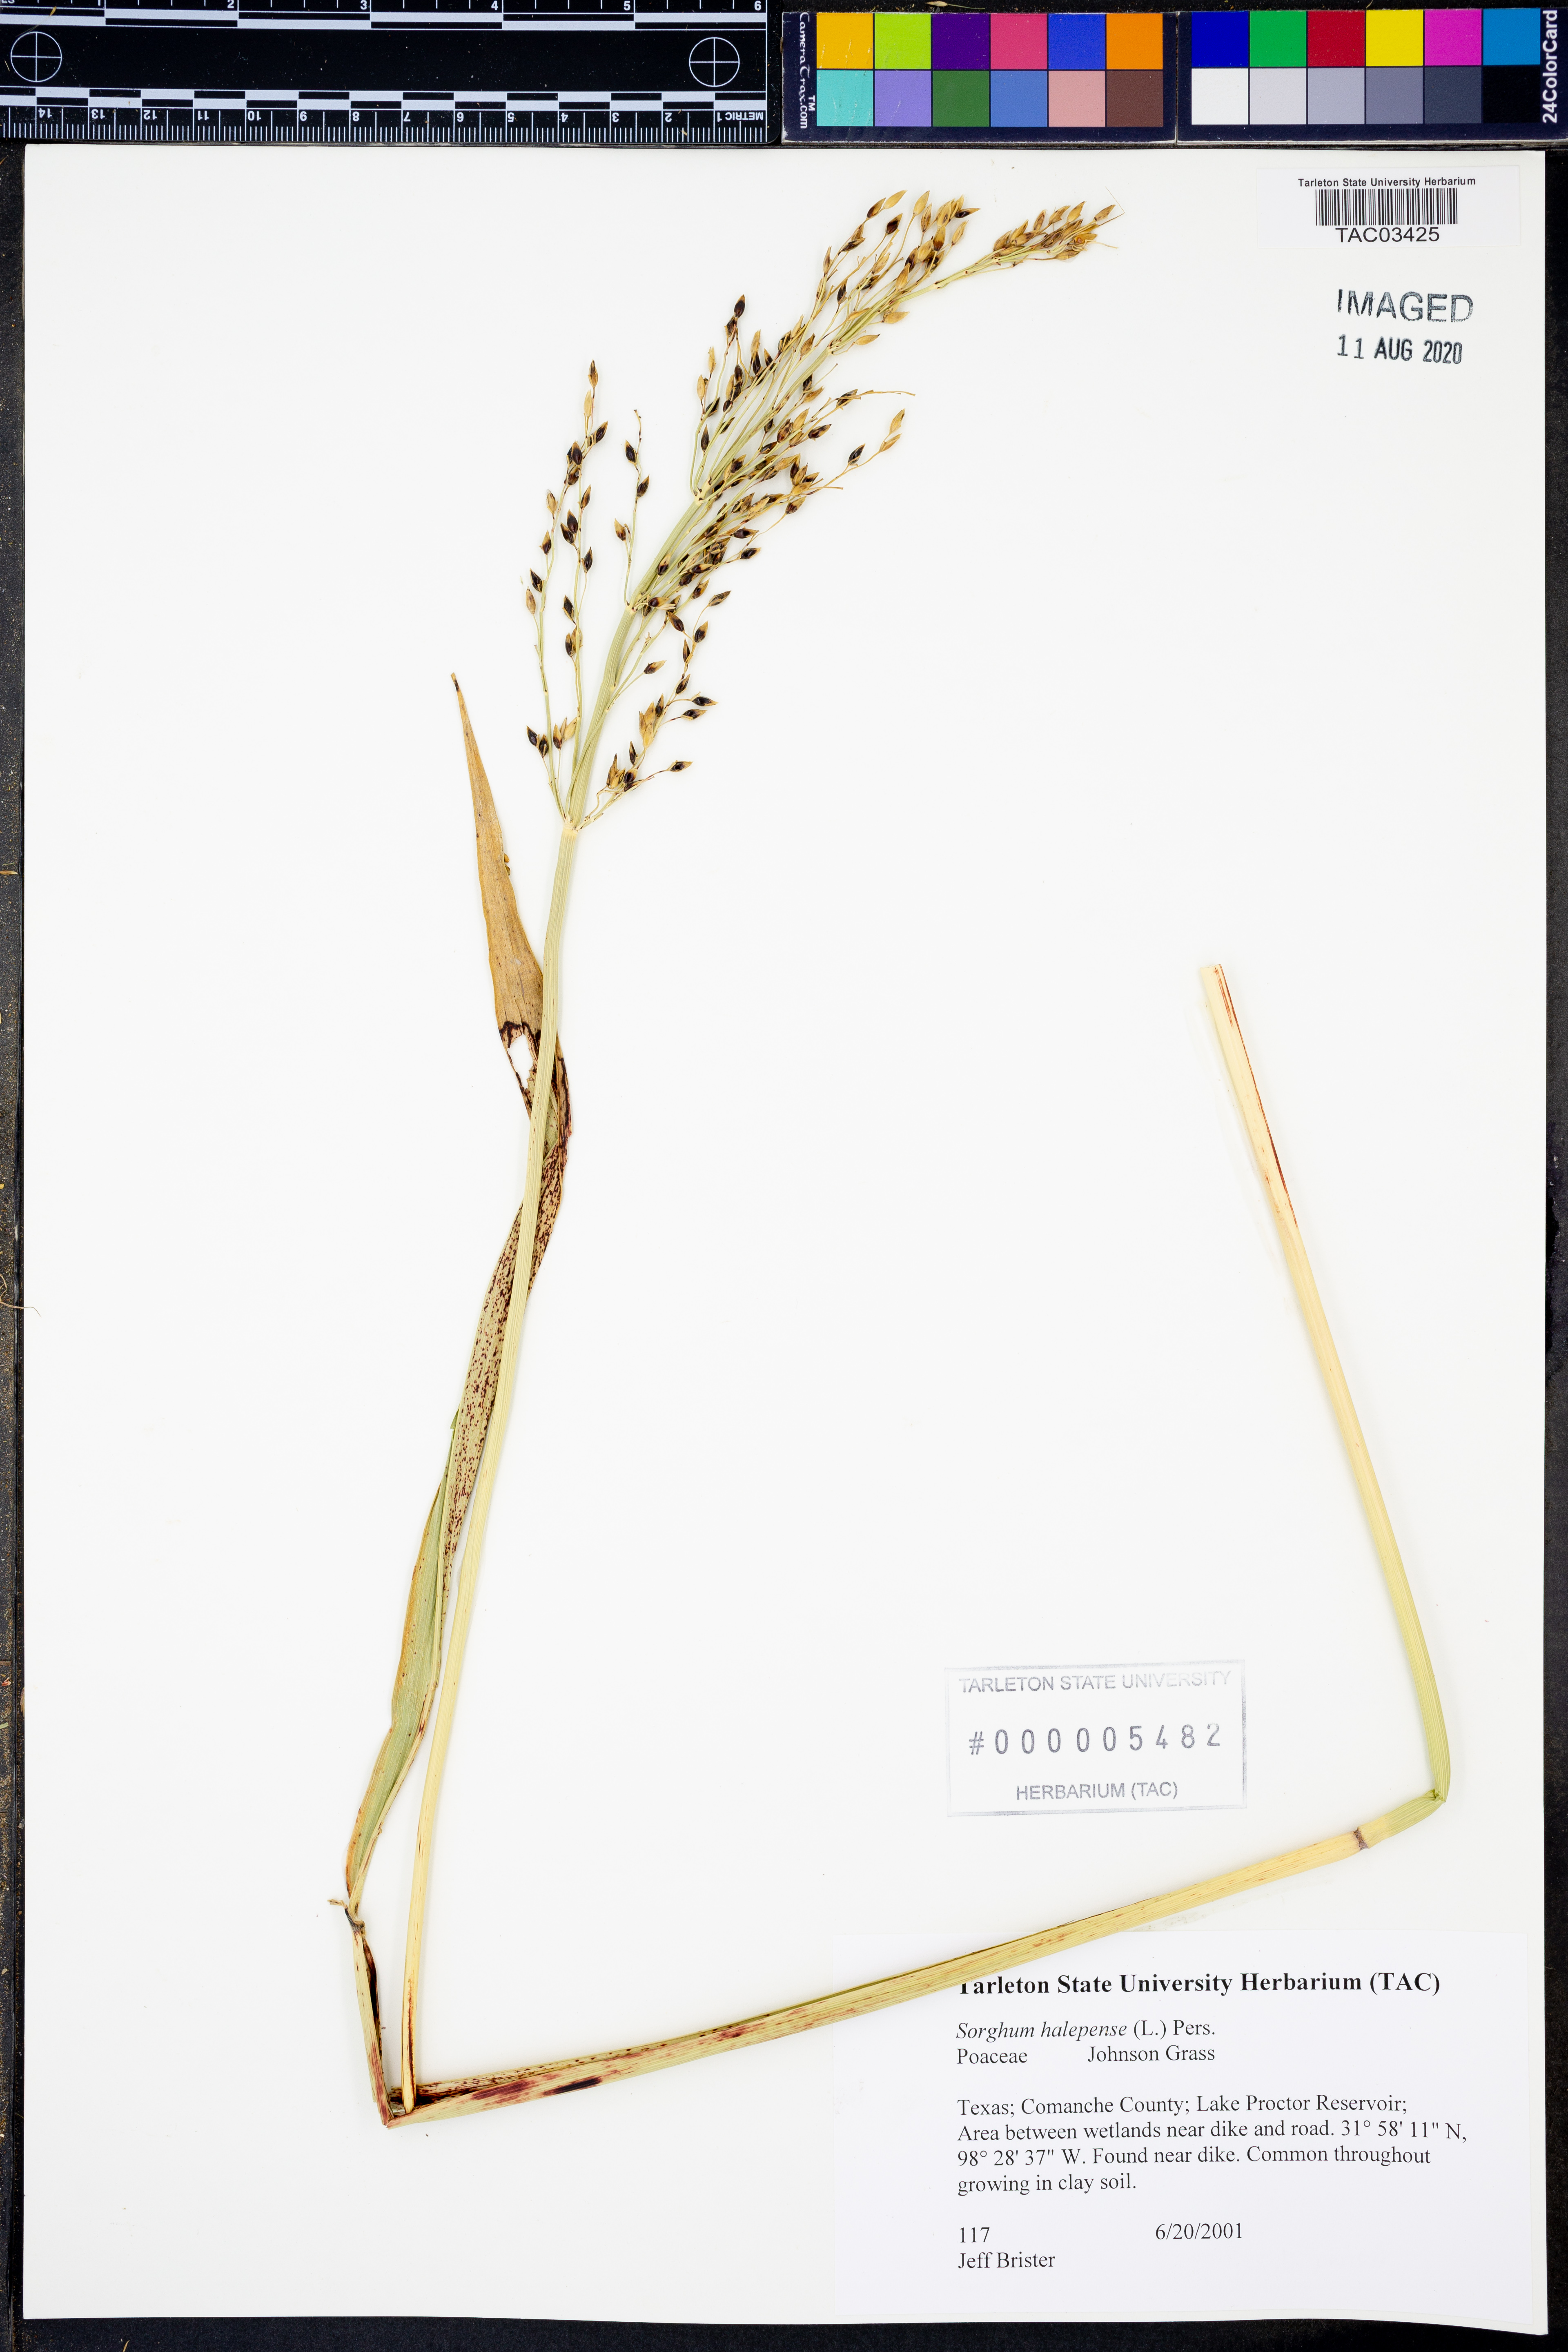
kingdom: Plantae
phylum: Tracheophyta
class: Liliopsida
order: Poales
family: Poaceae
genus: Sorghum
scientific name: Sorghum halepense
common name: Johnson-grass
